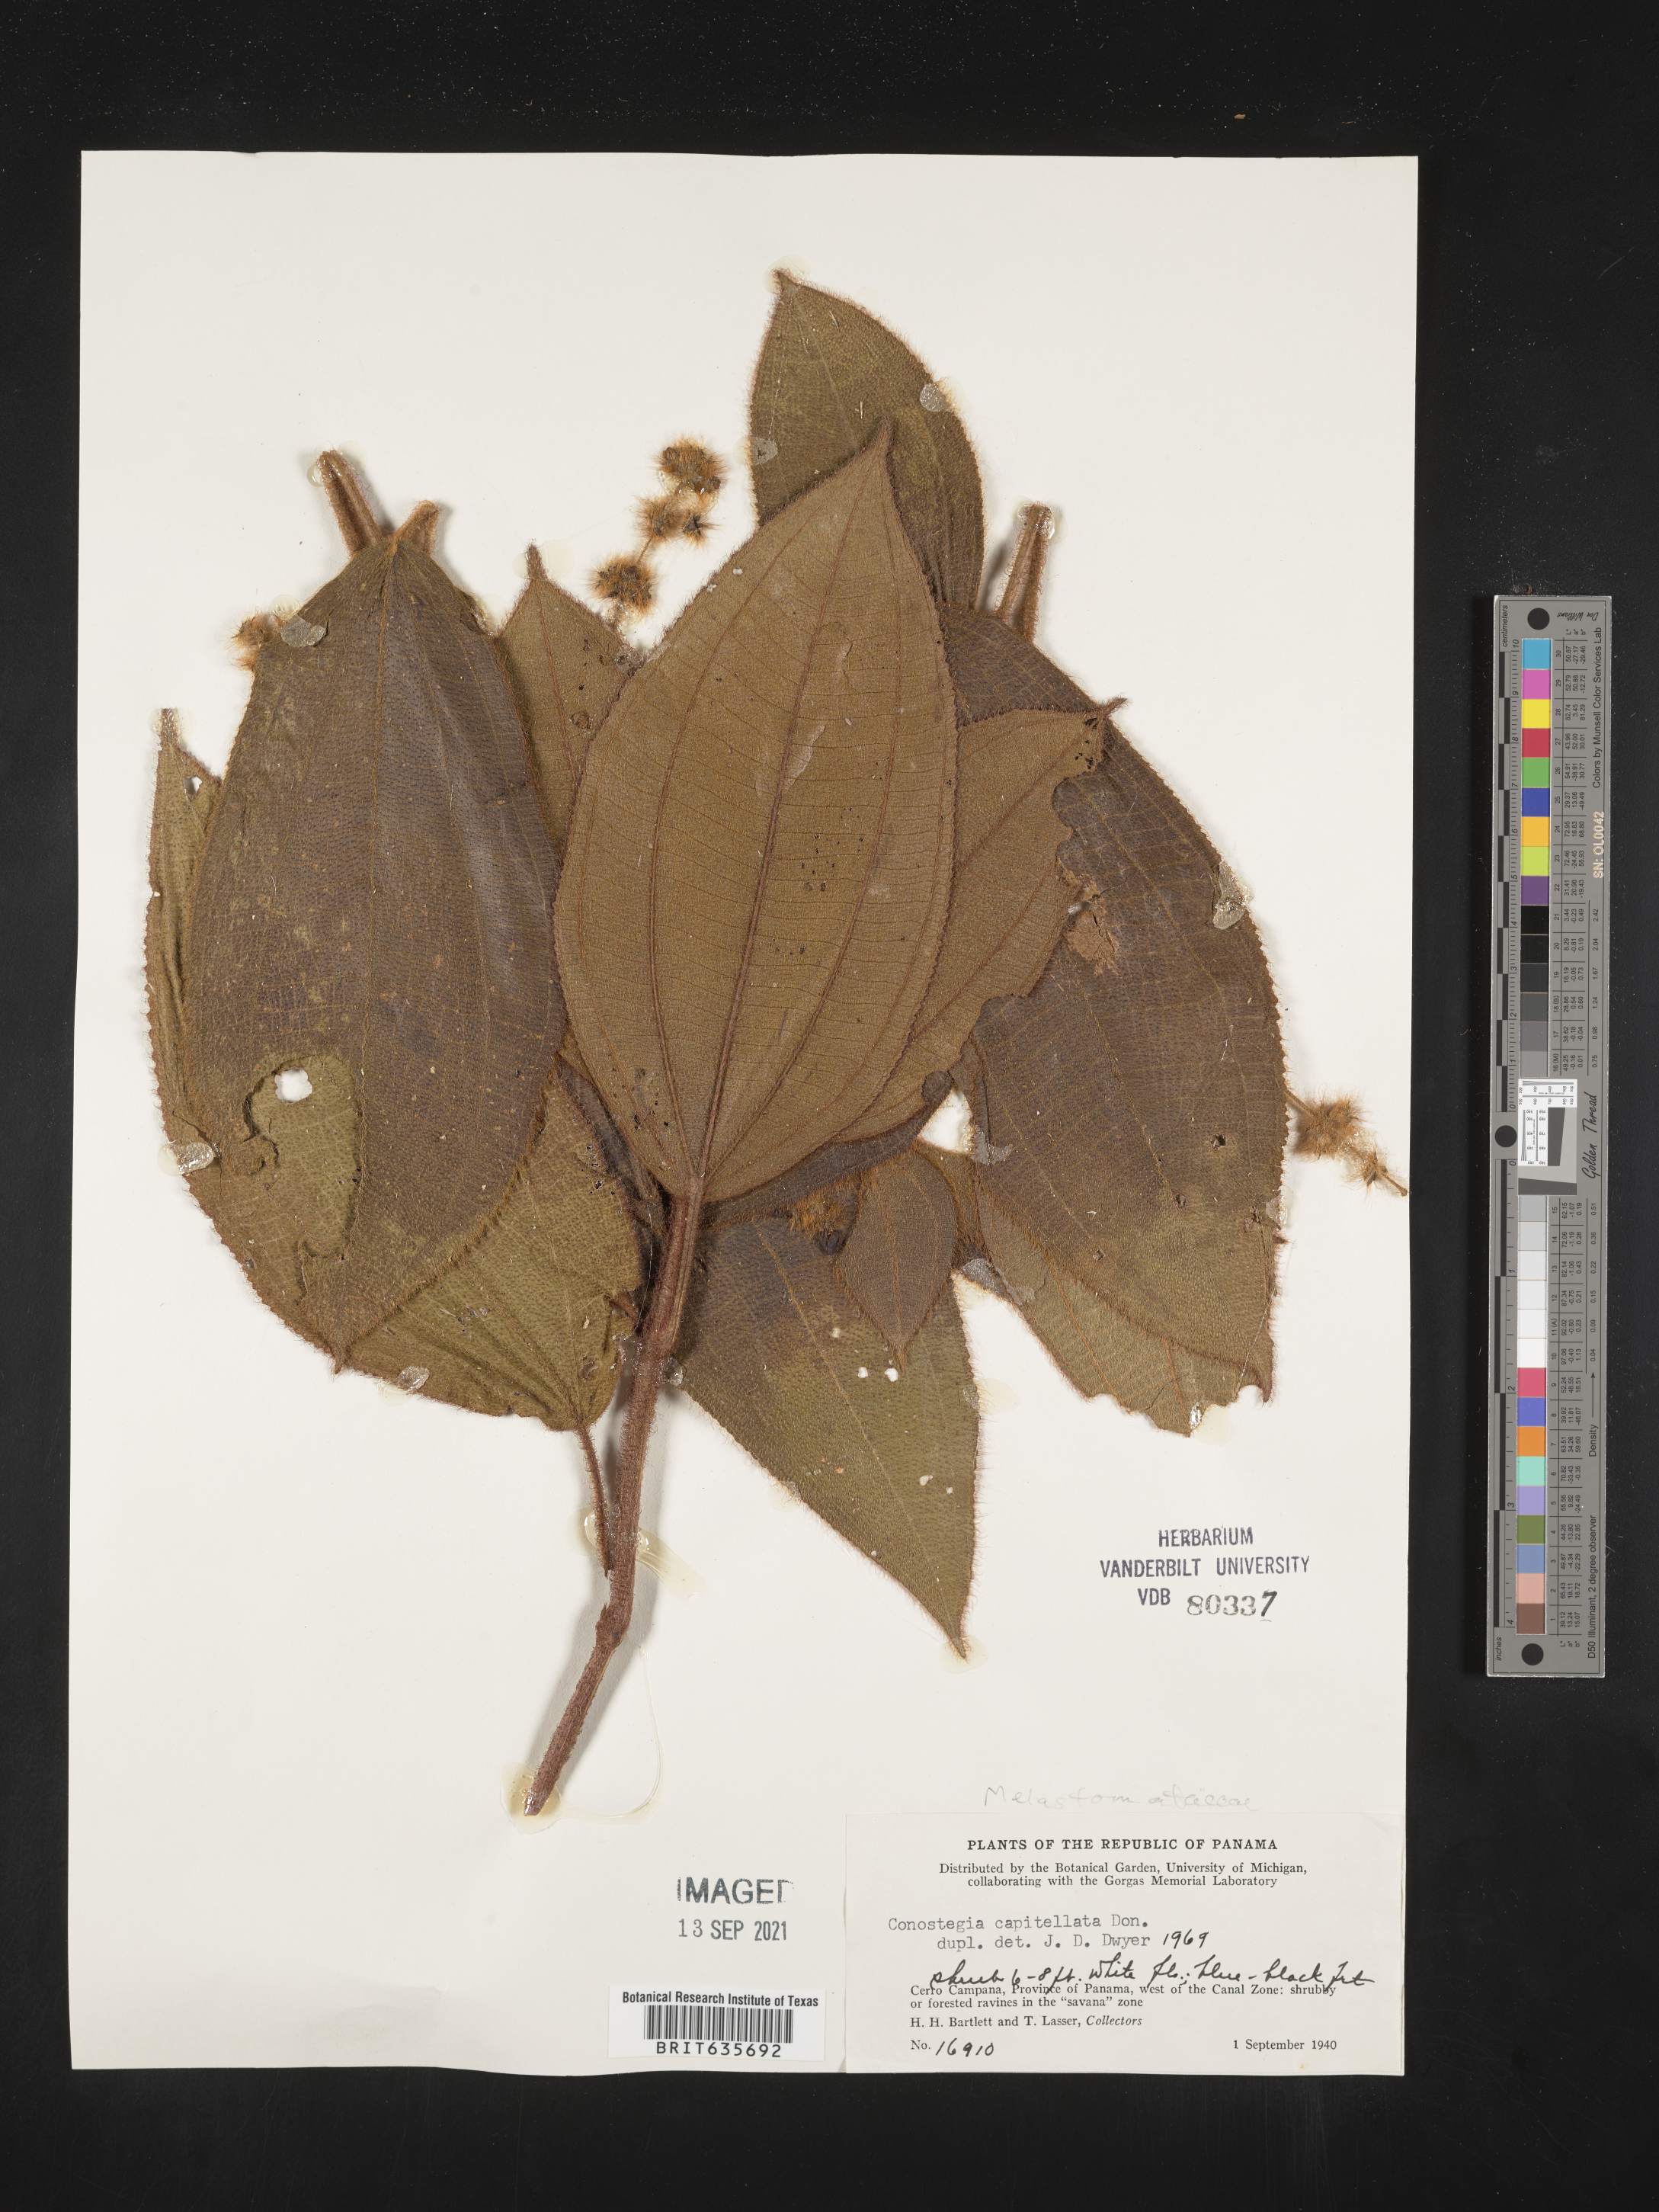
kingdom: Plantae
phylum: Tracheophyta
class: Magnoliopsida
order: Myrtales
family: Melastomataceae
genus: Miconia
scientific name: Miconia
